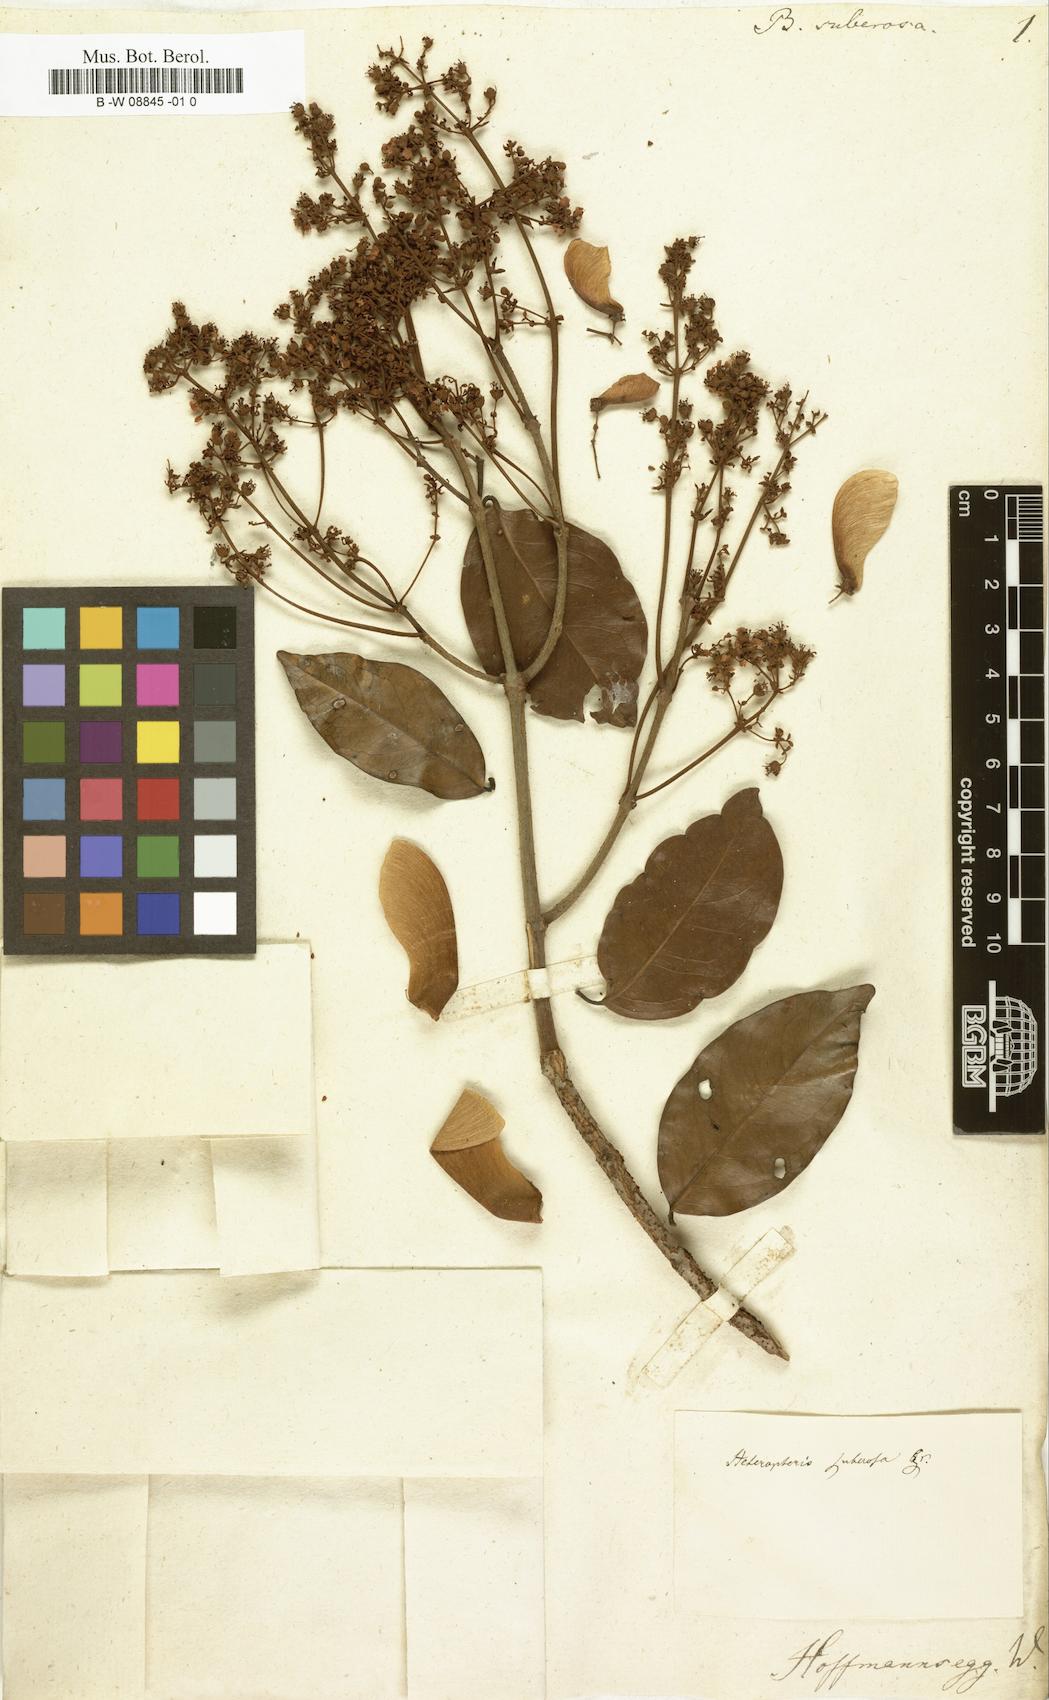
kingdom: Plantae
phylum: Tracheophyta
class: Magnoliopsida
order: Malpighiales
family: Malpighiaceae
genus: Heteropterys
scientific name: Heteropterys nervosa
